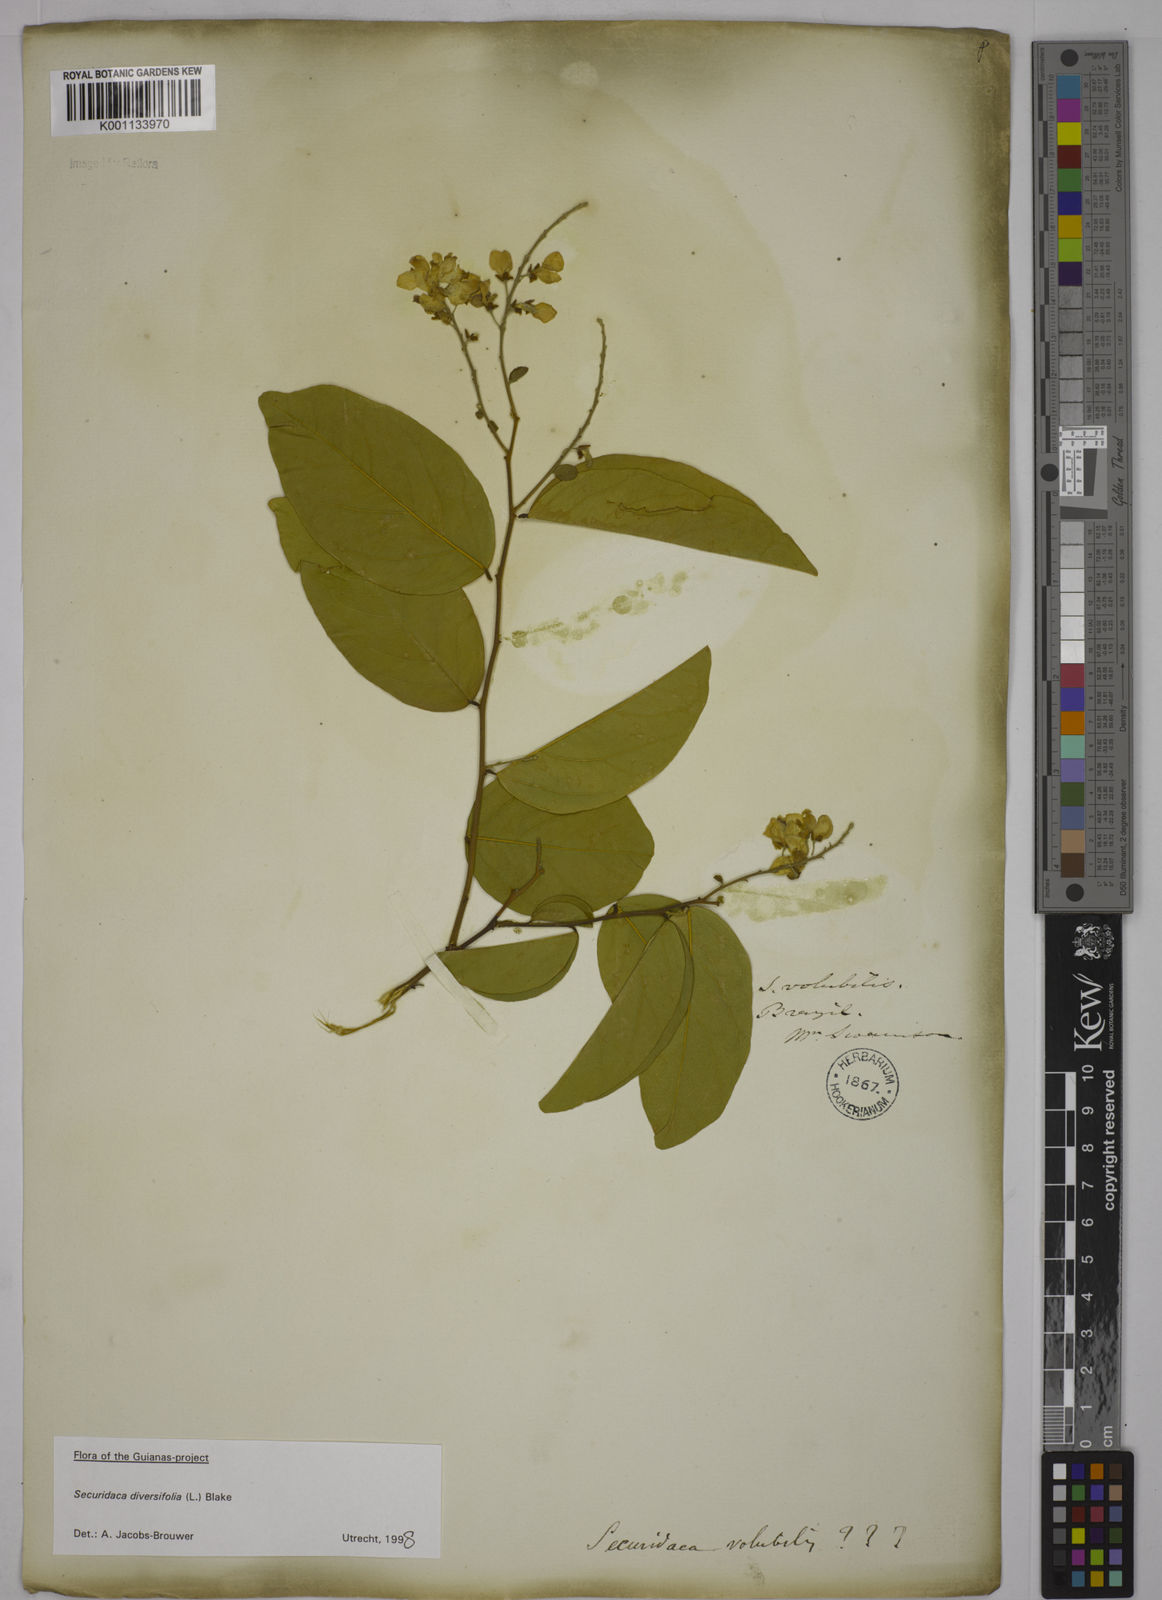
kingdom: Plantae
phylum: Tracheophyta
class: Magnoliopsida
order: Fabales
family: Polygalaceae
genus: Securidaca
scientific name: Securidaca diversifolia
